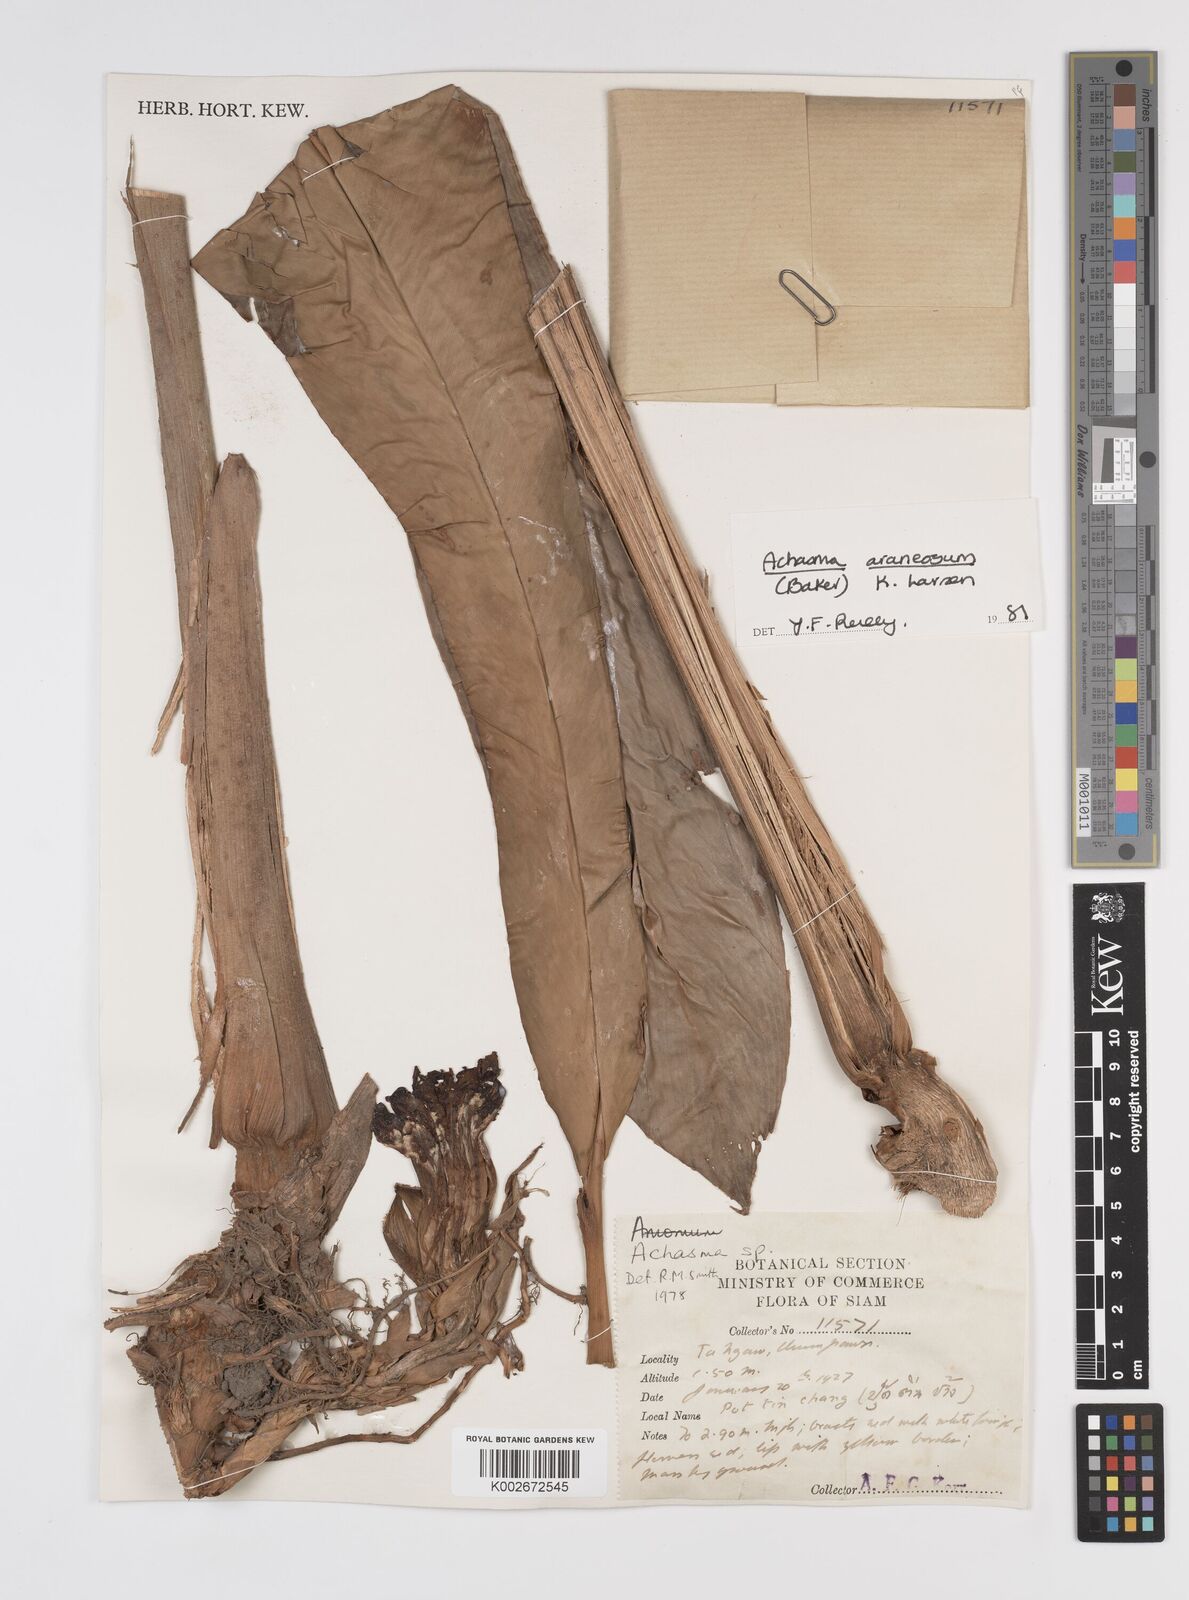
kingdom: Plantae
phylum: Tracheophyta
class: Liliopsida
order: Zingiberales
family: Zingiberaceae
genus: Etlingera
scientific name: Etlingera araneosa
